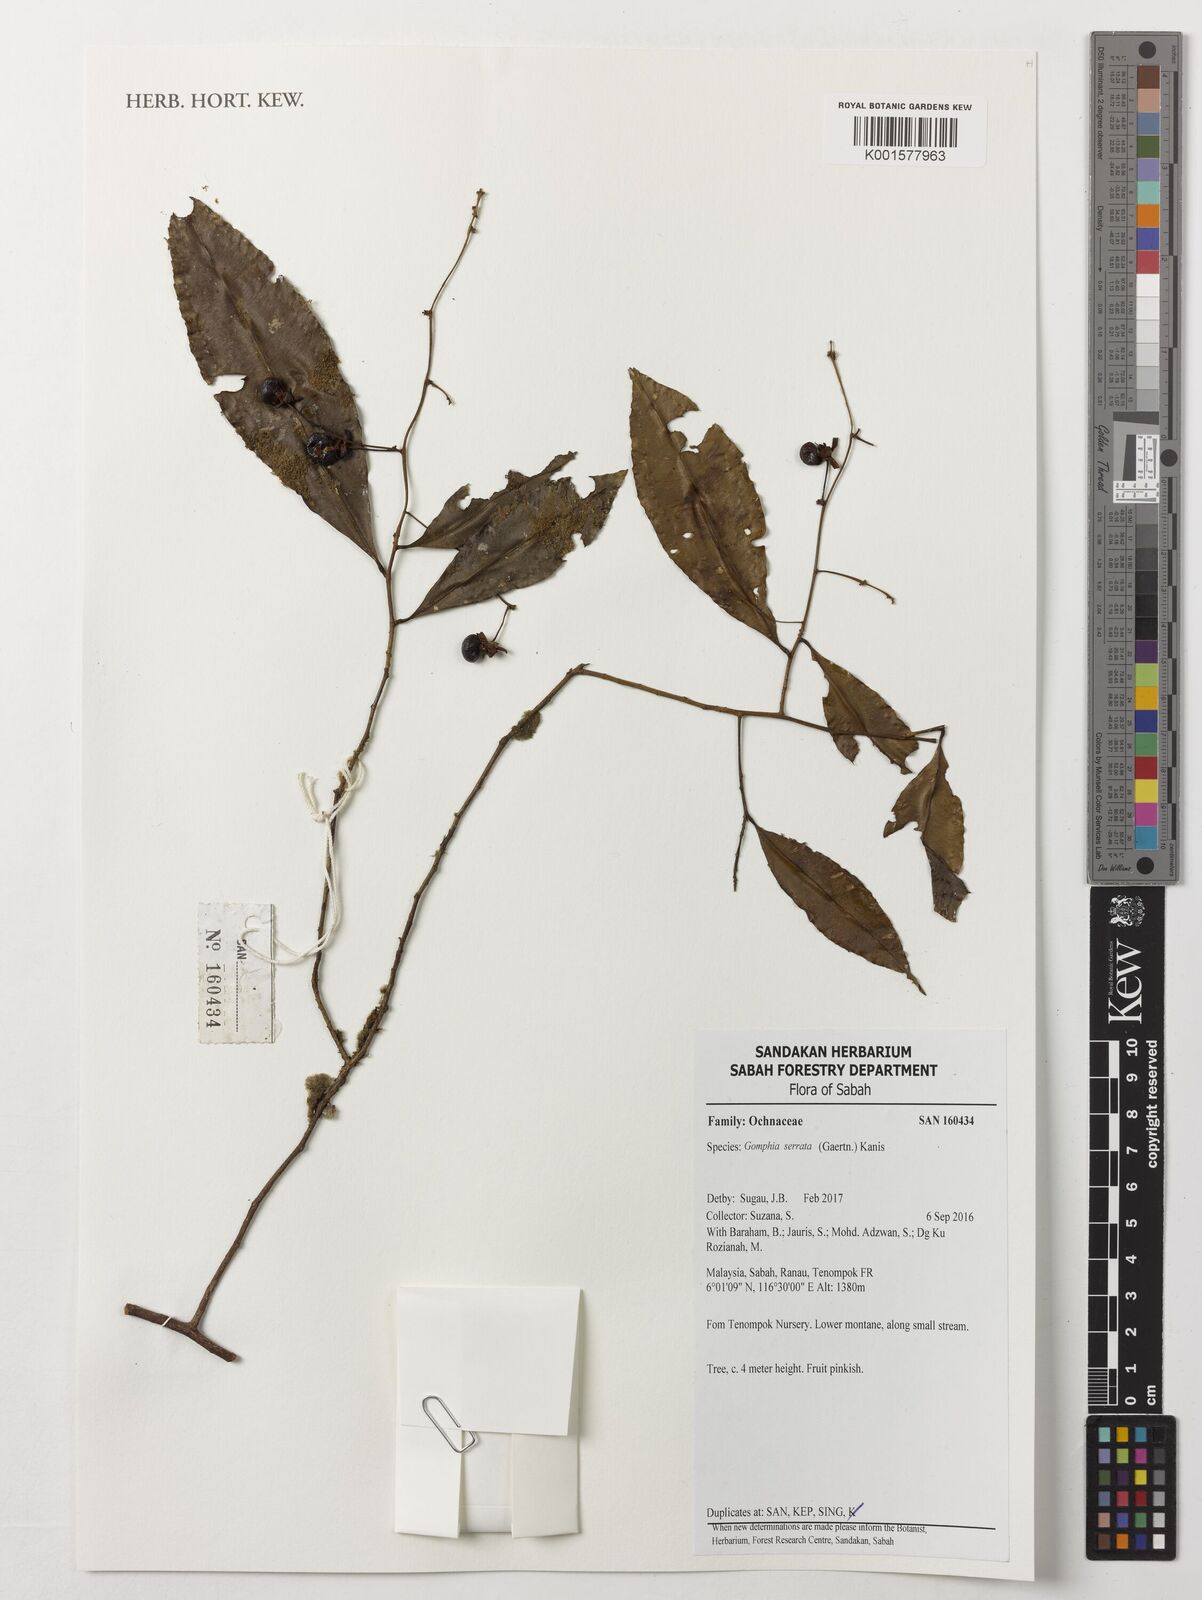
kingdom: Plantae
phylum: Tracheophyta
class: Magnoliopsida
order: Malpighiales
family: Ochnaceae
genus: Gomphia
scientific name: Gomphia serrata
